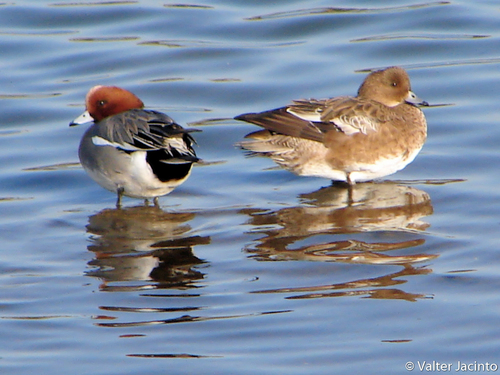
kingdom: Animalia
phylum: Chordata
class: Aves
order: Anseriformes
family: Anatidae
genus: Mareca
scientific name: Mareca penelope
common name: Eurasian wigeon
